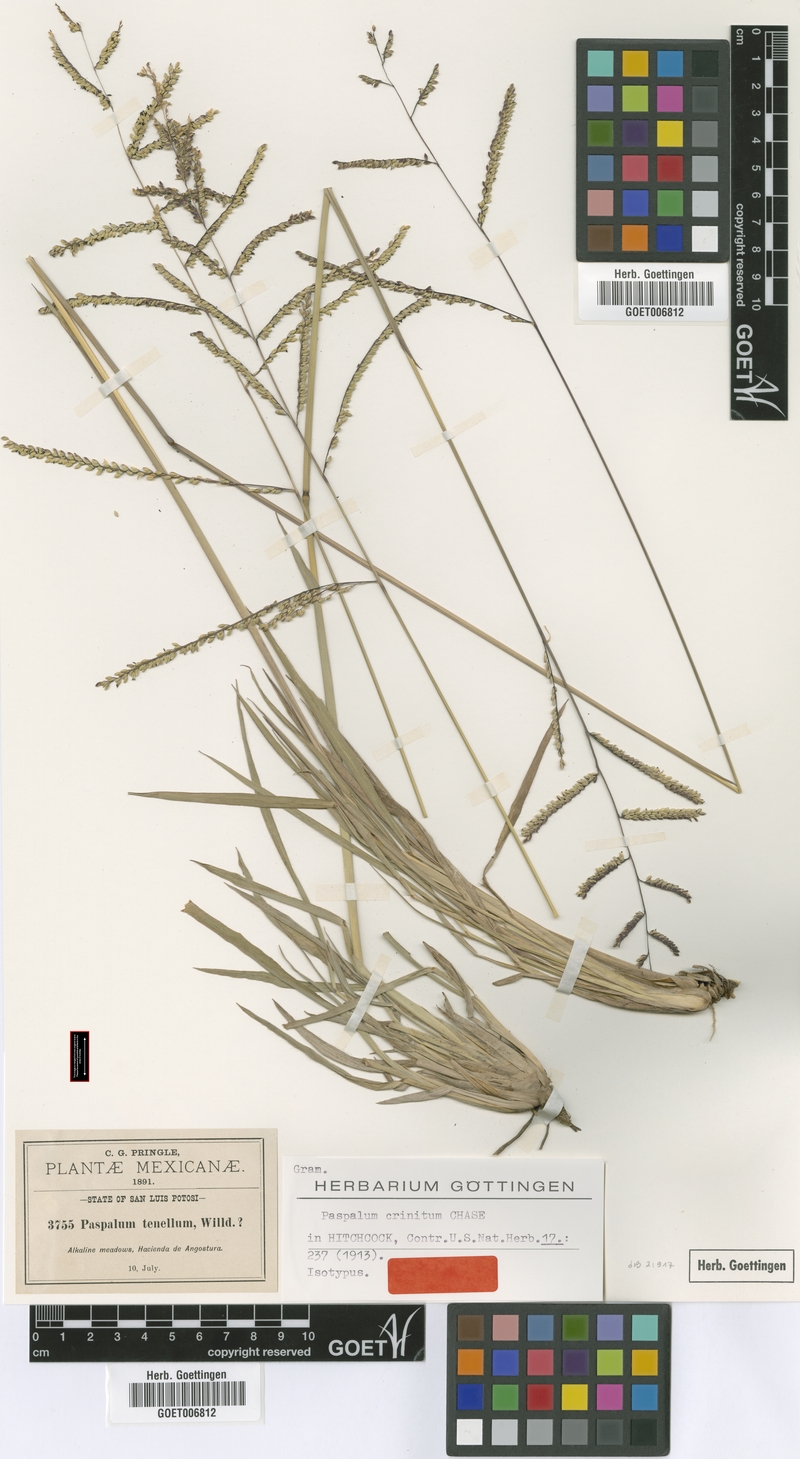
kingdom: Plantae
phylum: Tracheophyta
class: Liliopsida
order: Poales
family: Poaceae
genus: Paspalum
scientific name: Paspalum crinitum
